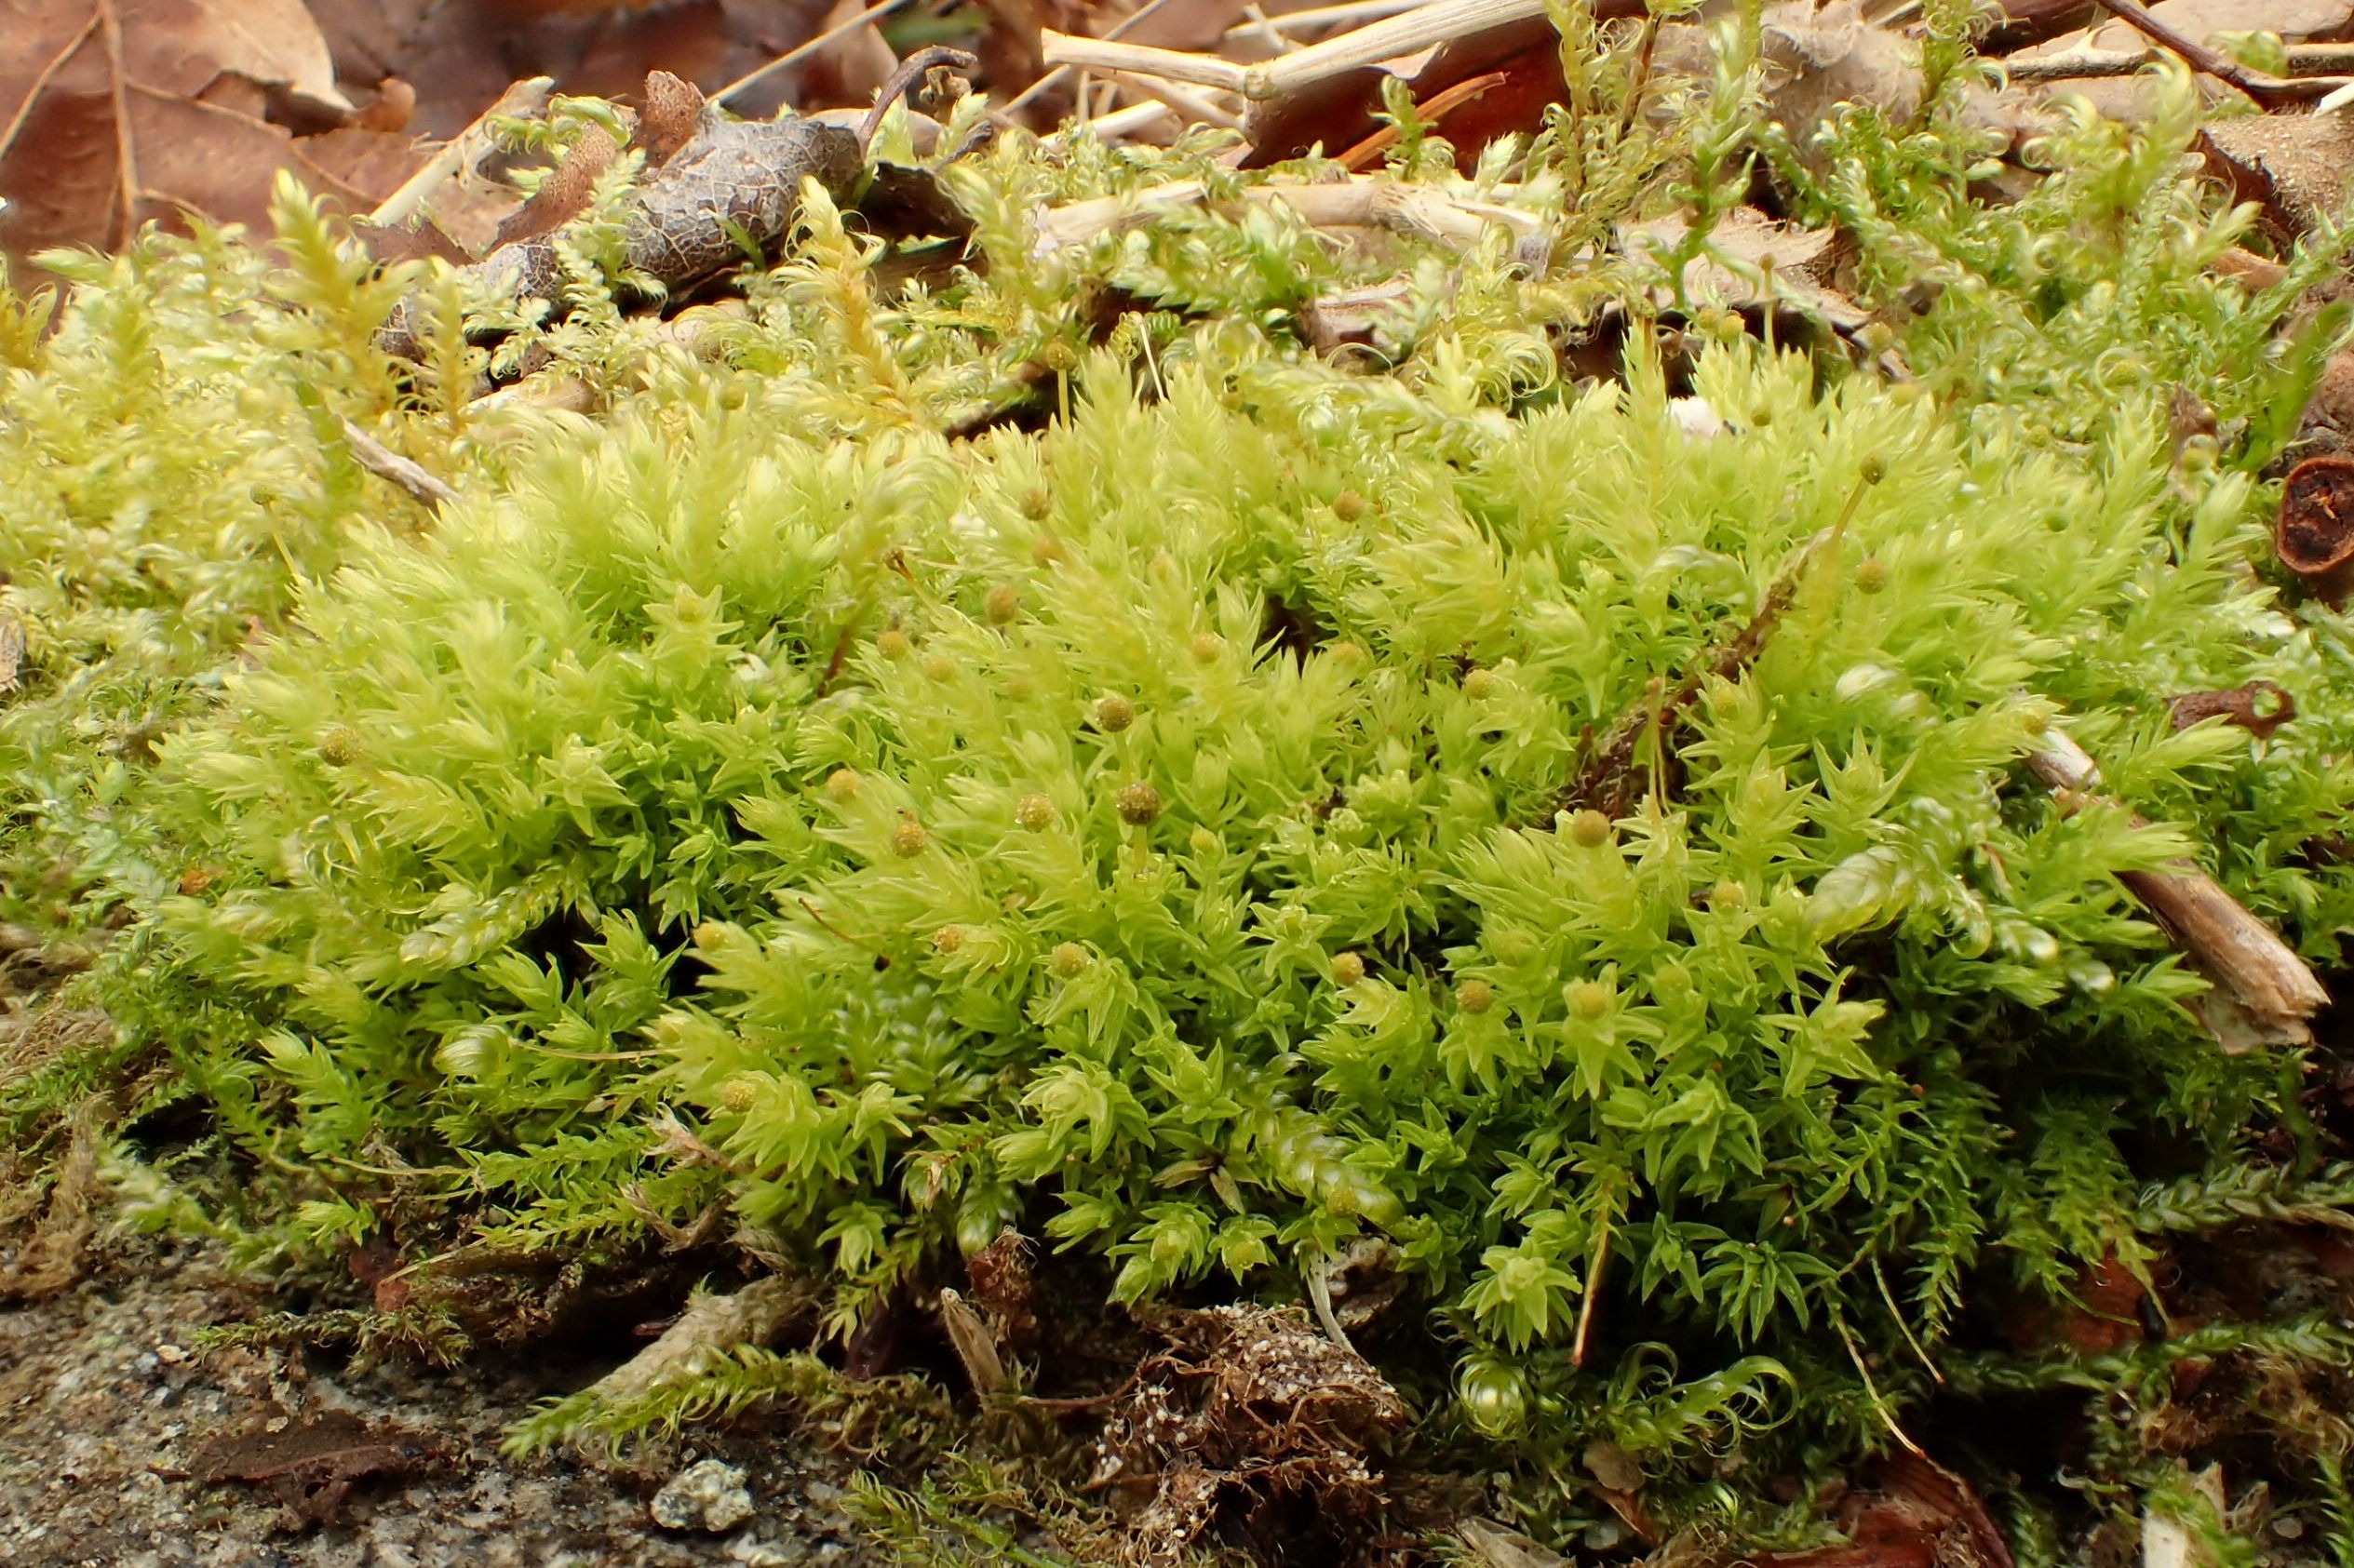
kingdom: Plantae
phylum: Bryophyta
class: Bryopsida
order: Aulacomniales
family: Aulacomniaceae
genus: Aulacomnium
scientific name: Aulacomnium androgynum
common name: Kugle-filtmos
